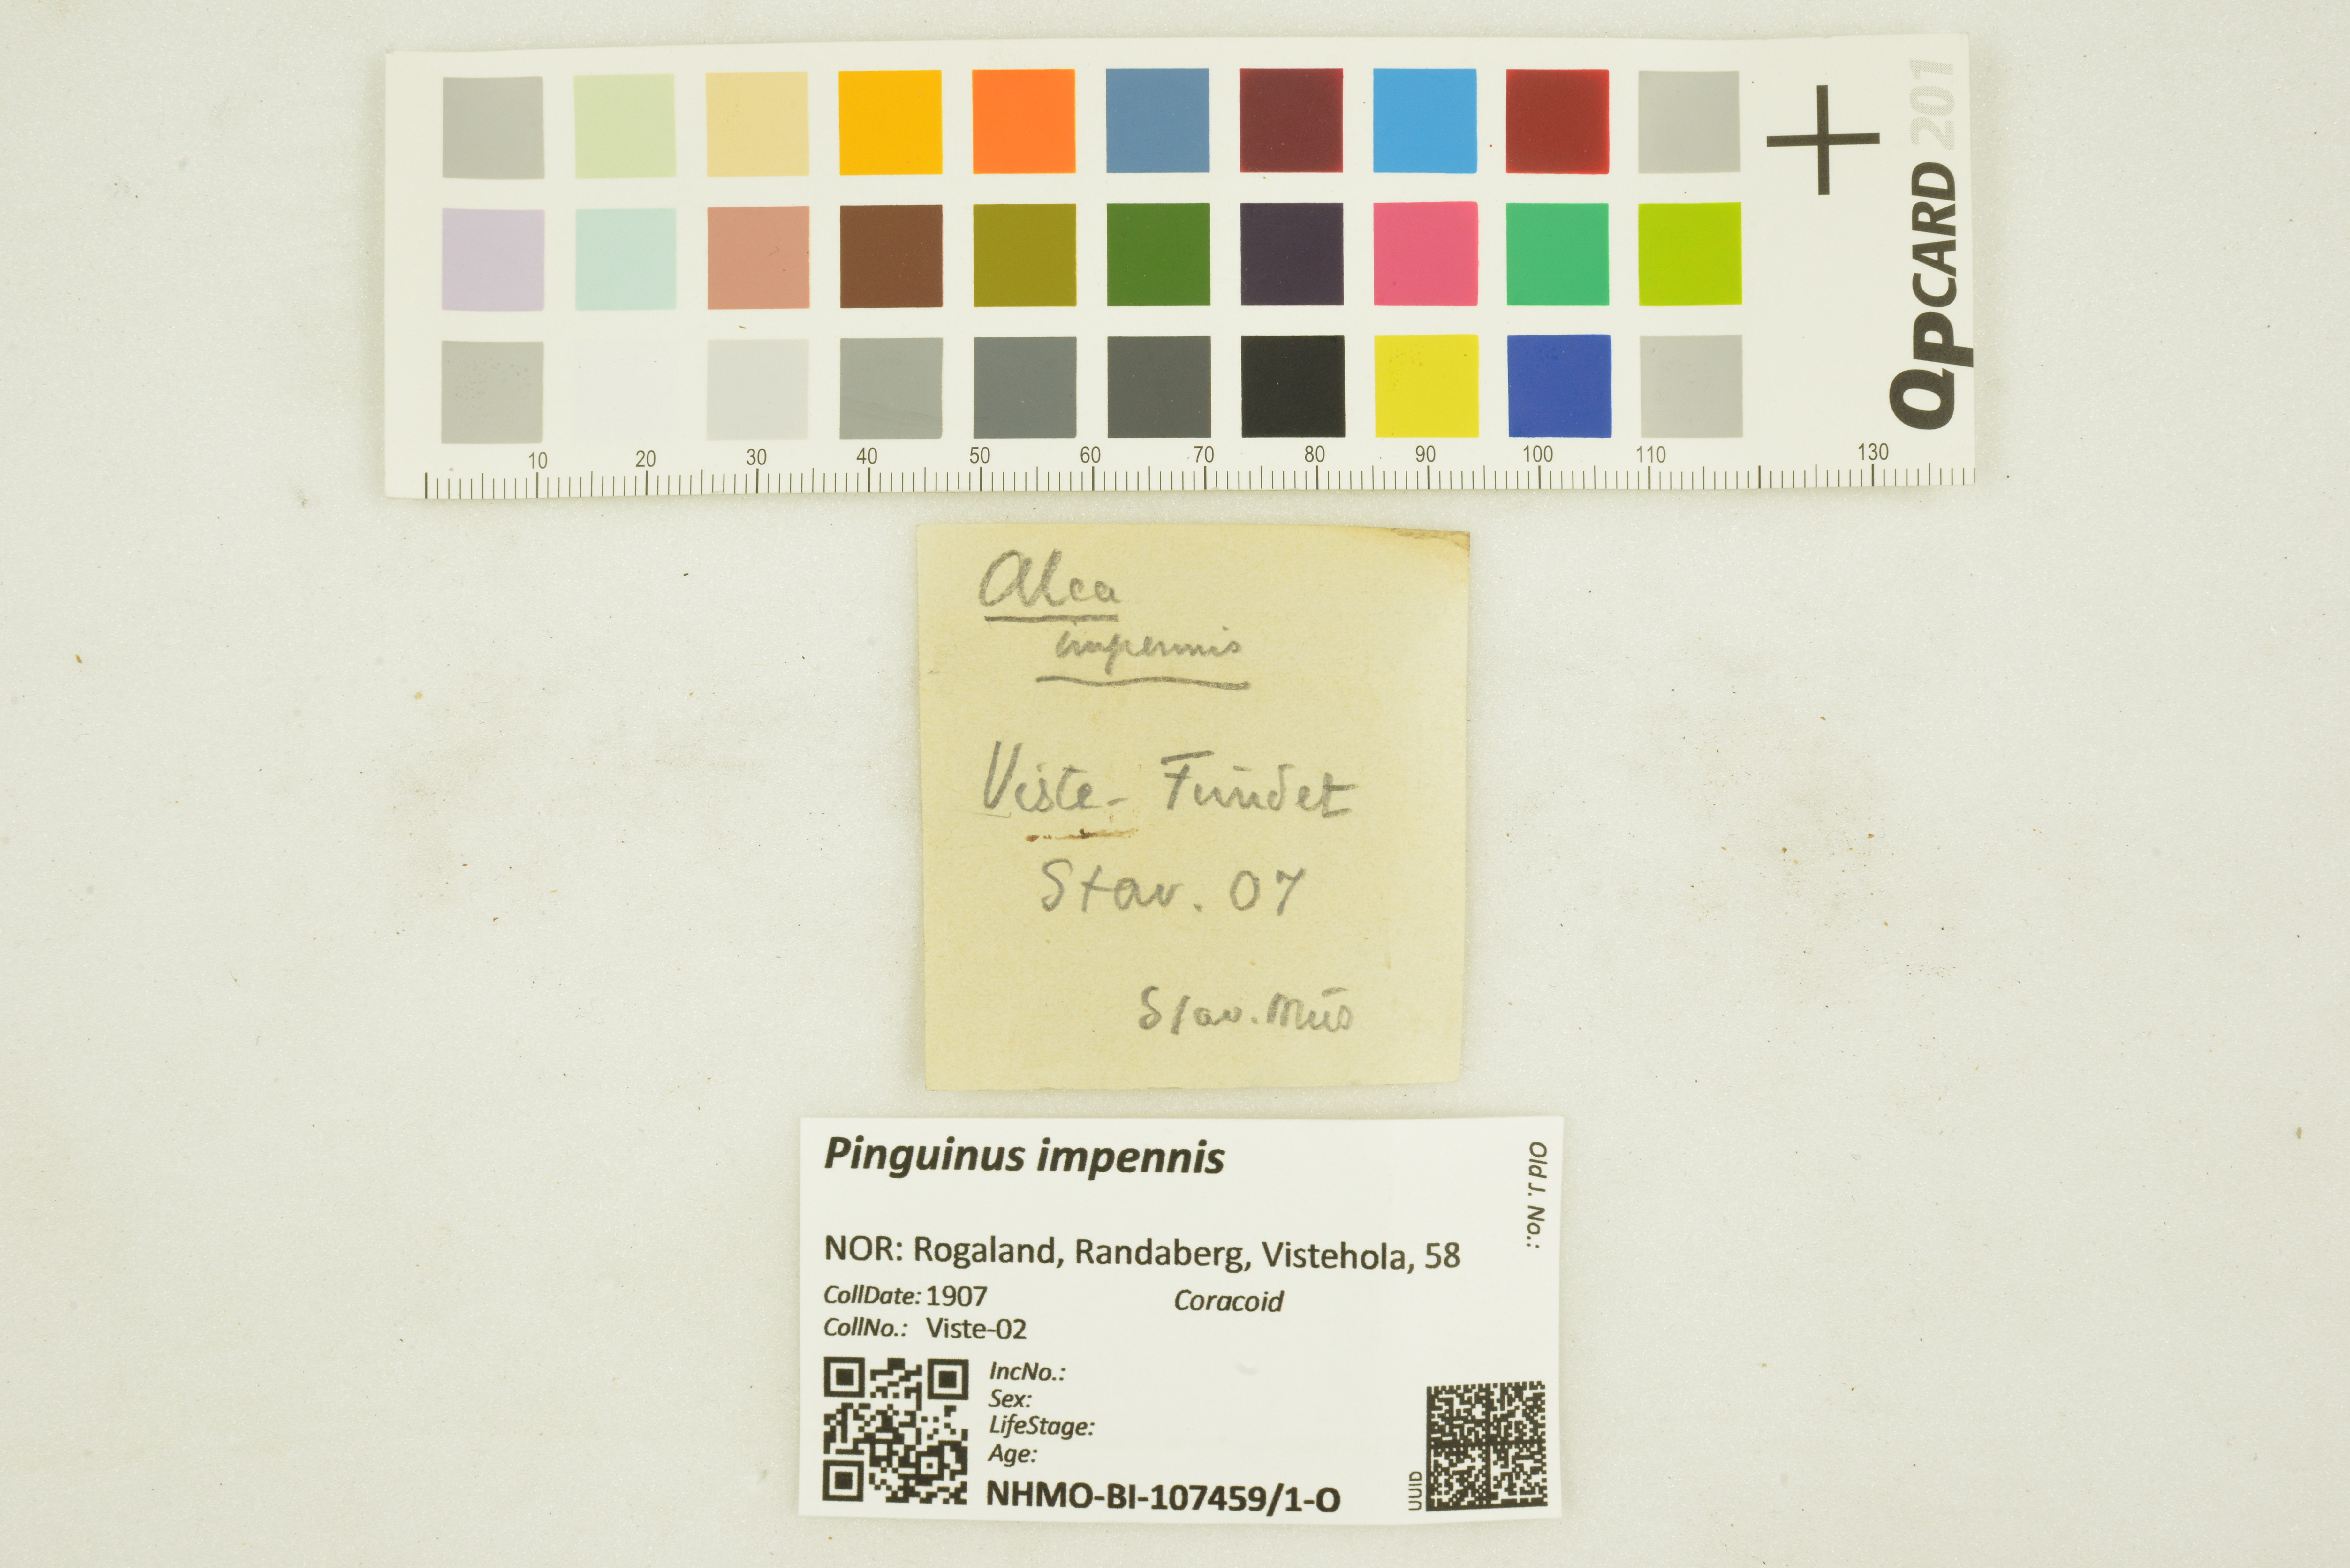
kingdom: Animalia
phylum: Chordata
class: Aves
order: Charadriiformes
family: Alcidae
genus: Pinguinus
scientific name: Pinguinus impennis
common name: Great auk
